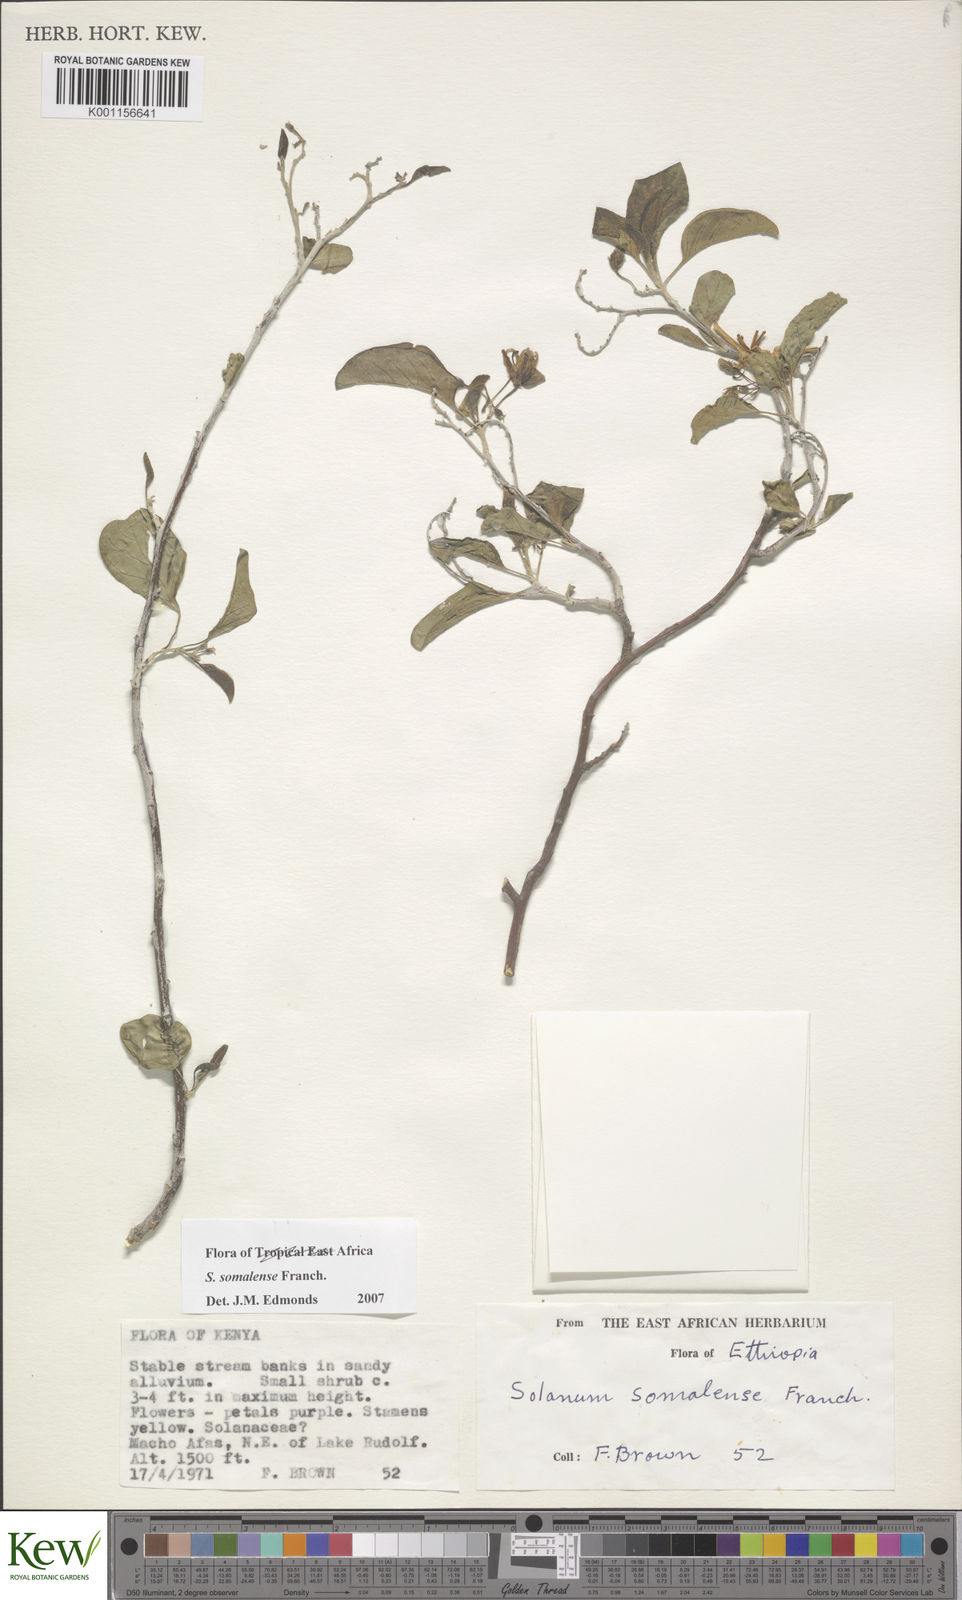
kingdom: Plantae
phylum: Tracheophyta
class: Magnoliopsida
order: Solanales
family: Solanaceae
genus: Solanum
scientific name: Solanum somalense
